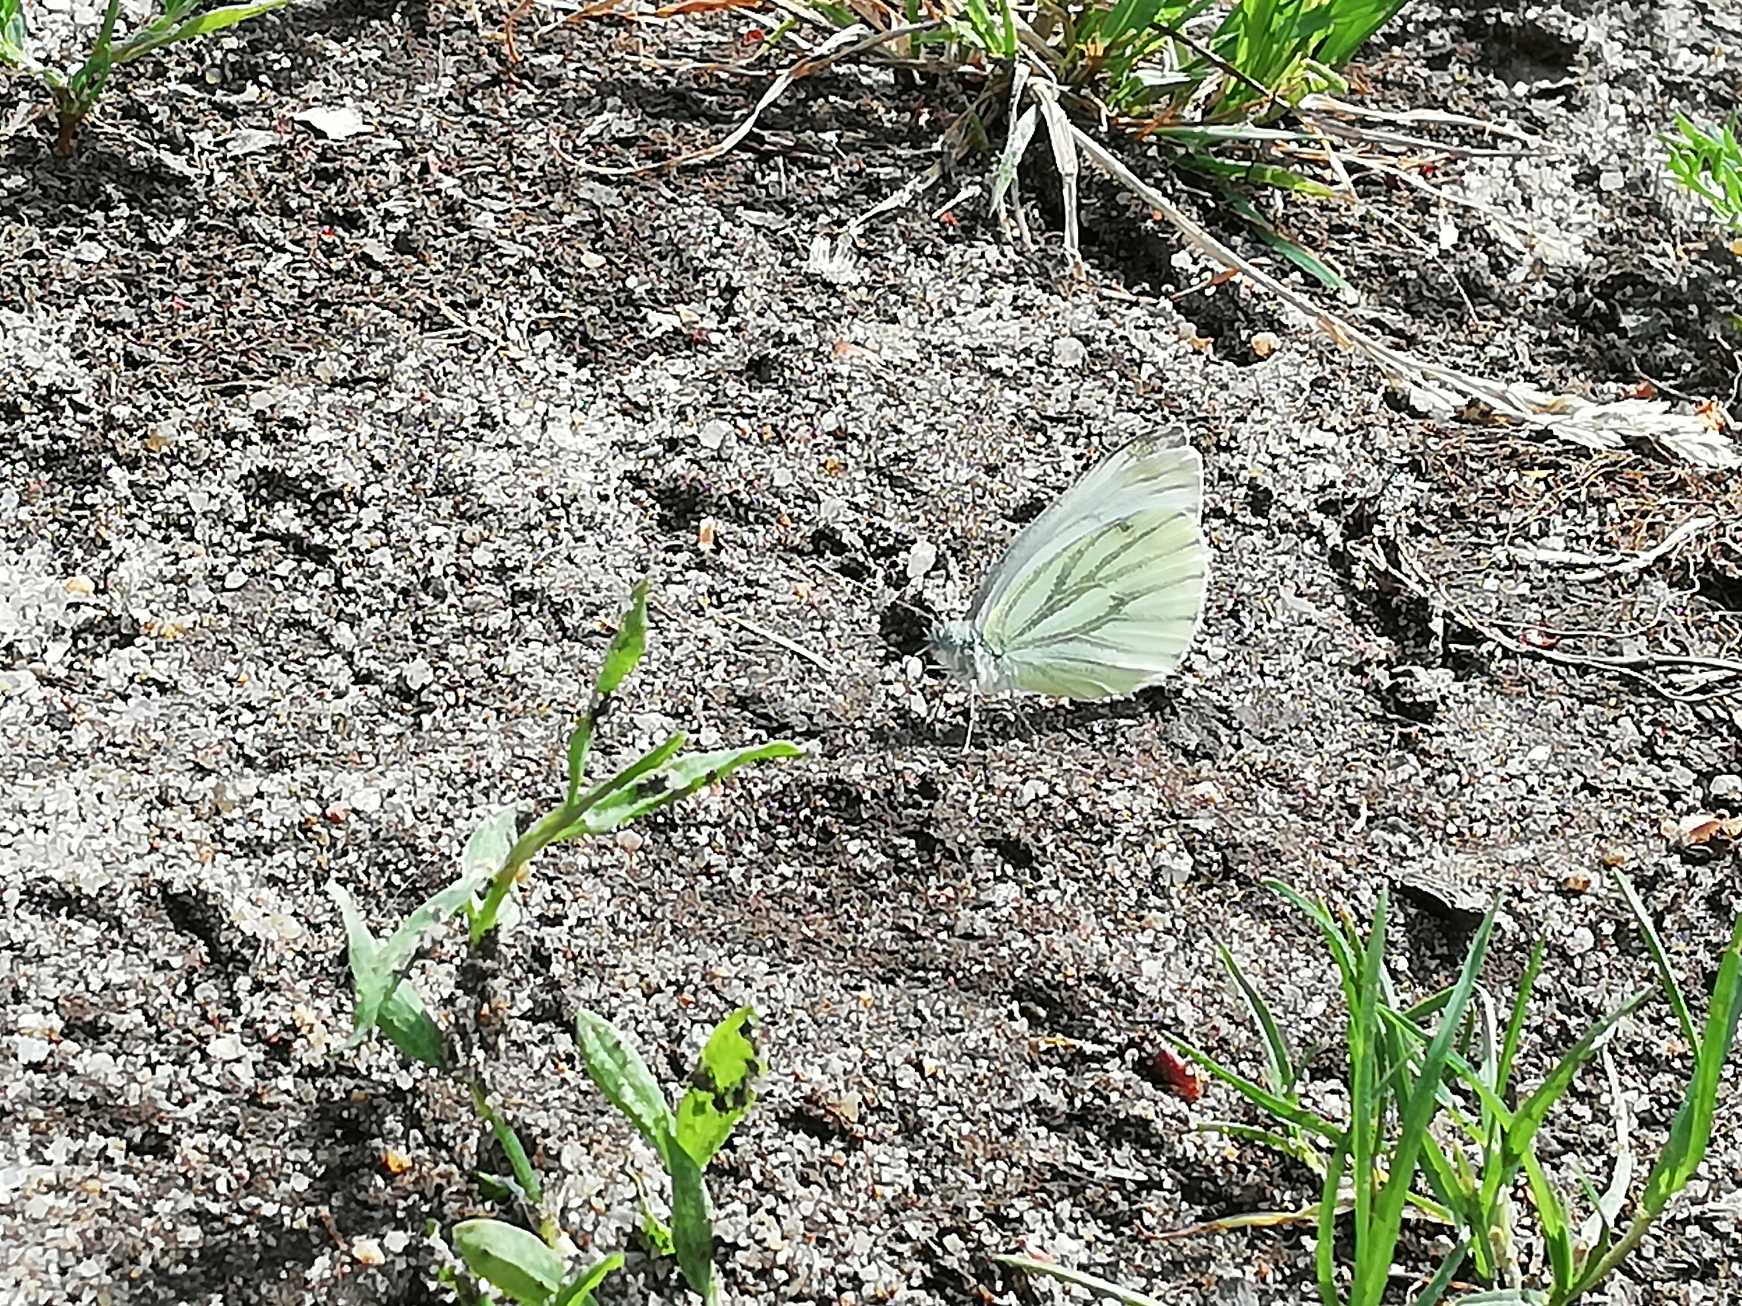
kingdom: Animalia
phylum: Arthropoda
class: Insecta
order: Lepidoptera
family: Pieridae
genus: Pieris
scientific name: Pieris napi
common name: Grønåret kålsommerfugl
